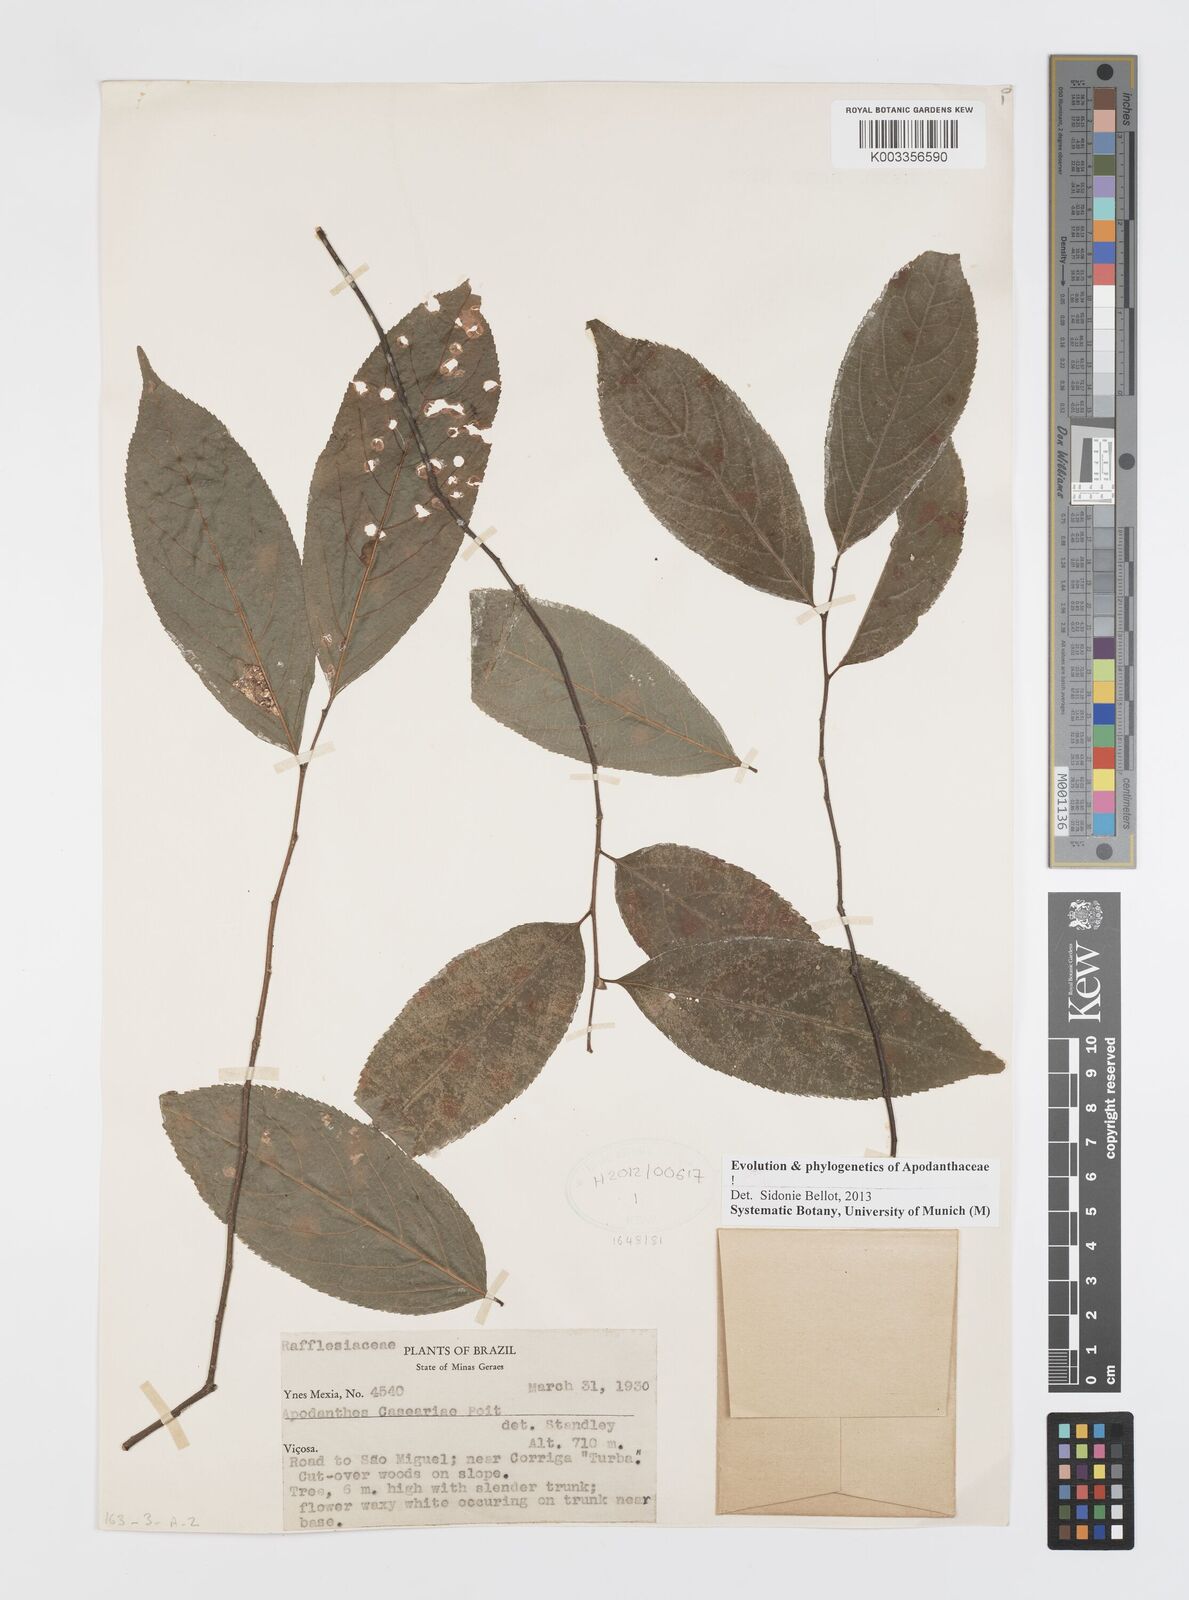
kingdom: Plantae
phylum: Tracheophyta
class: Magnoliopsida
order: Cucurbitales
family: Apodanthaceae
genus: Apodanthes
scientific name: Apodanthes caseariae
